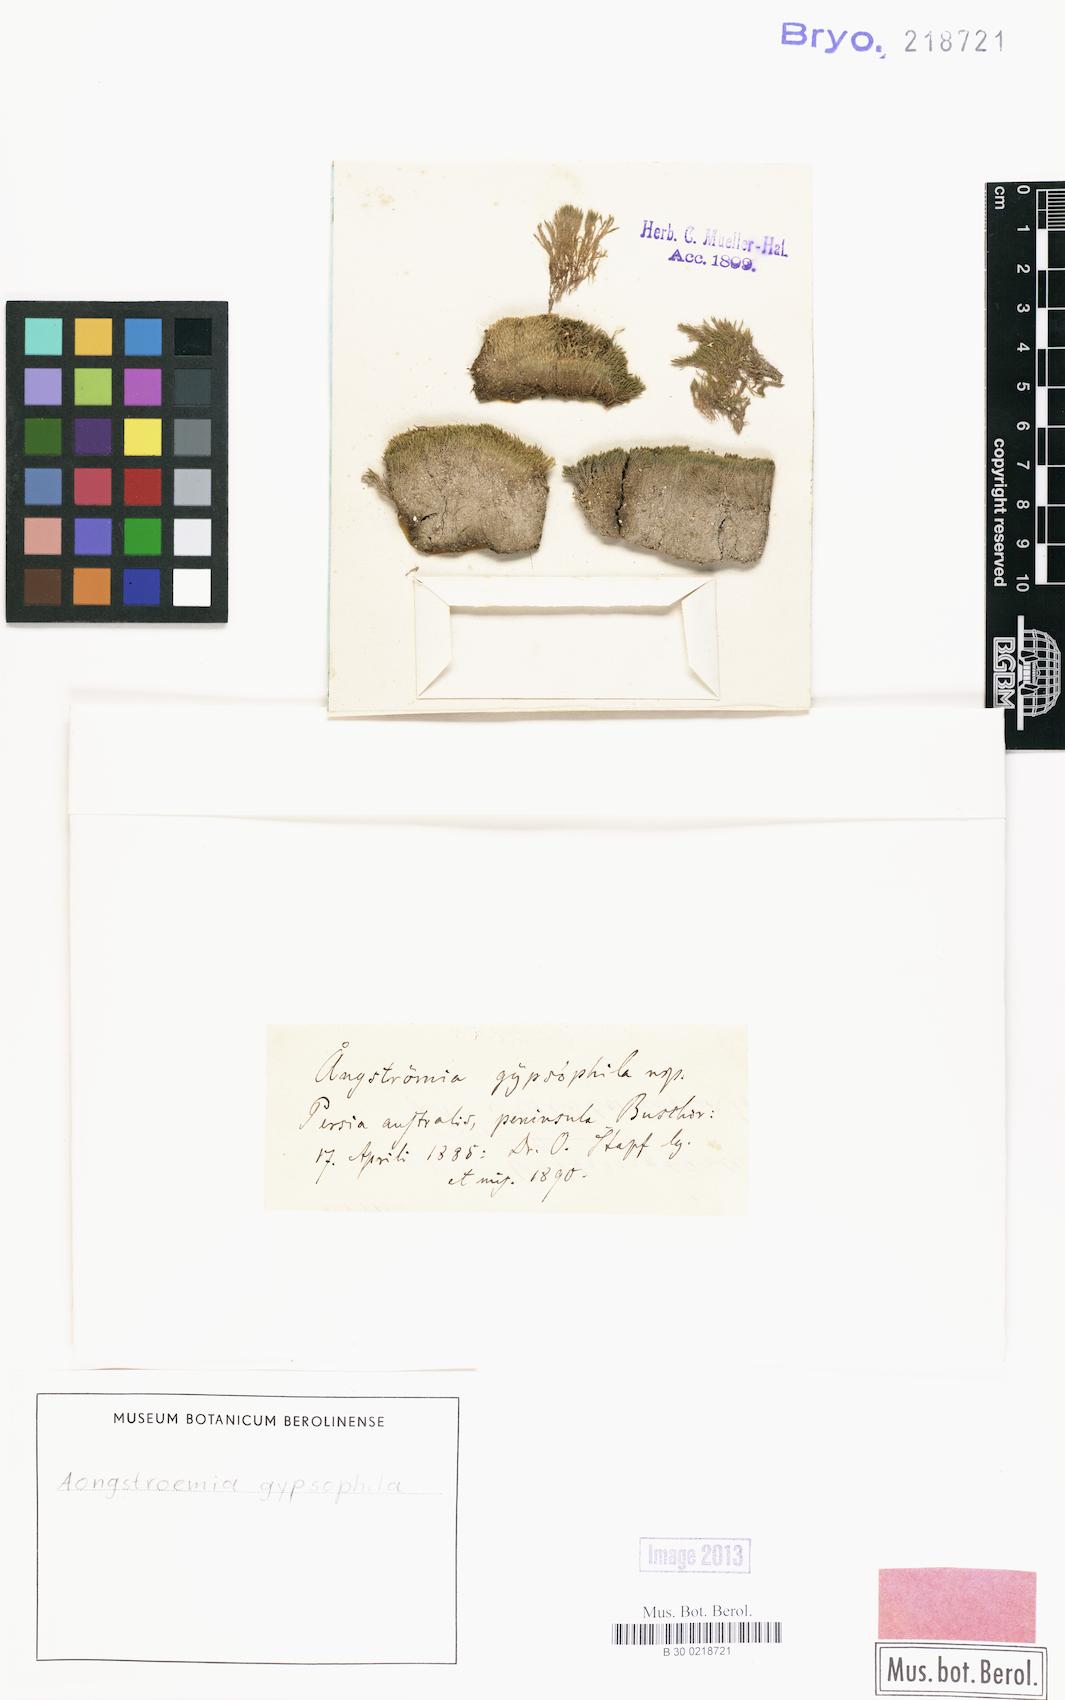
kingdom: Plantae
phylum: Bryophyta
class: Bryopsida
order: Dicranales
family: Aongstroemiaceae
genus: Aongstroemia
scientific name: Aongstroemia
